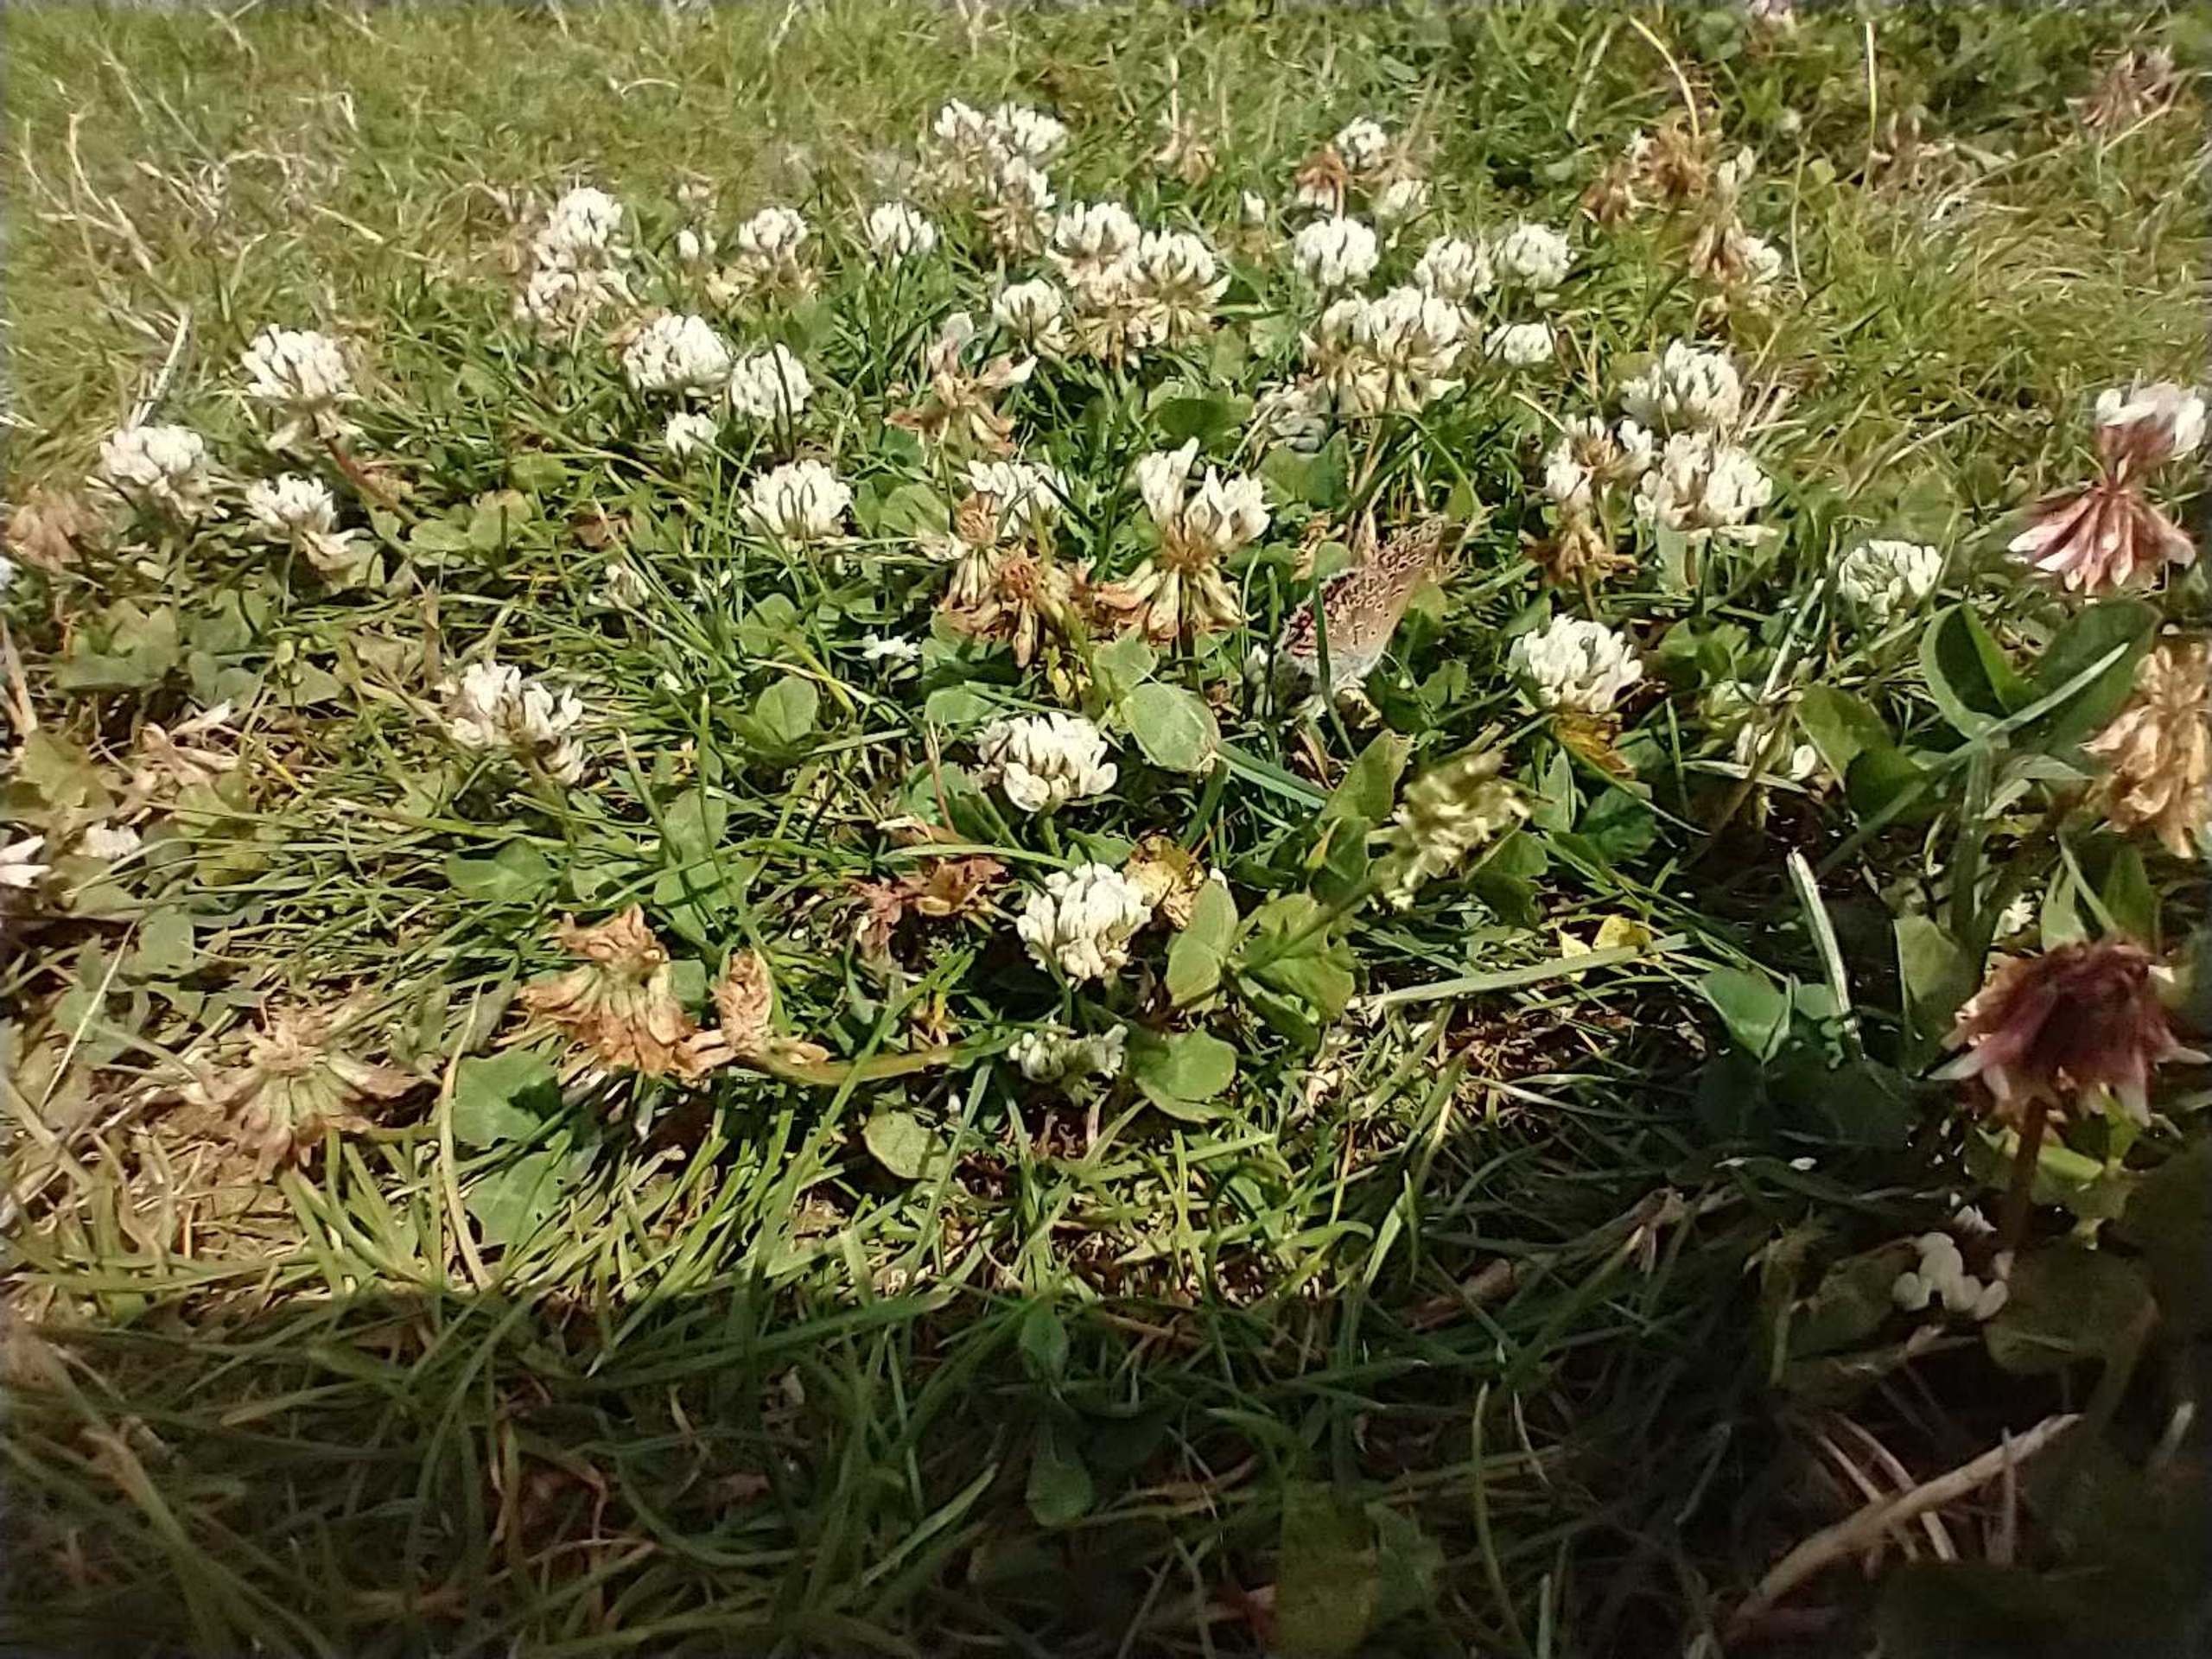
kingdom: Animalia
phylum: Arthropoda
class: Insecta
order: Lepidoptera
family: Lycaenidae
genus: Polyommatus
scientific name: Polyommatus icarus
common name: Almindelig blåfugl
